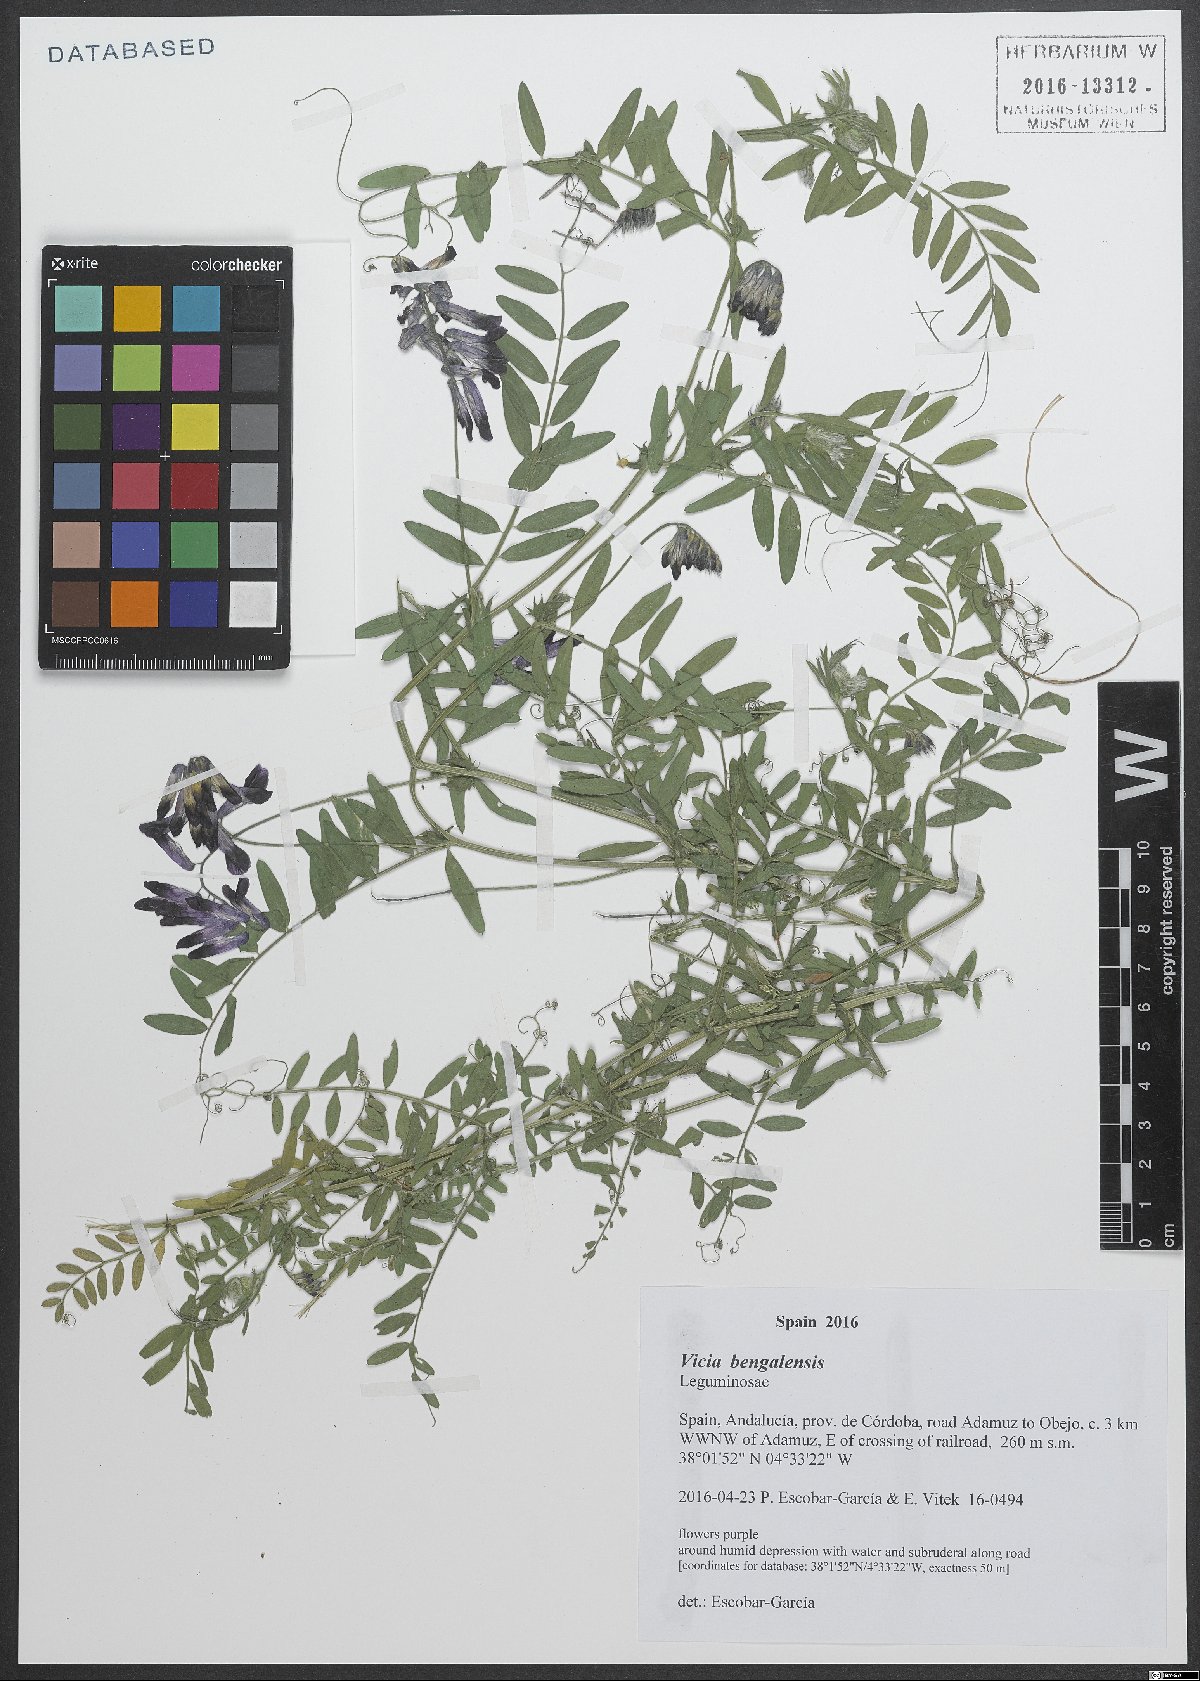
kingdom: Plantae
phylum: Tracheophyta
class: Magnoliopsida
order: Fabales
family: Fabaceae
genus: Vicia
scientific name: Vicia benghalensis
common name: Purple vetch
